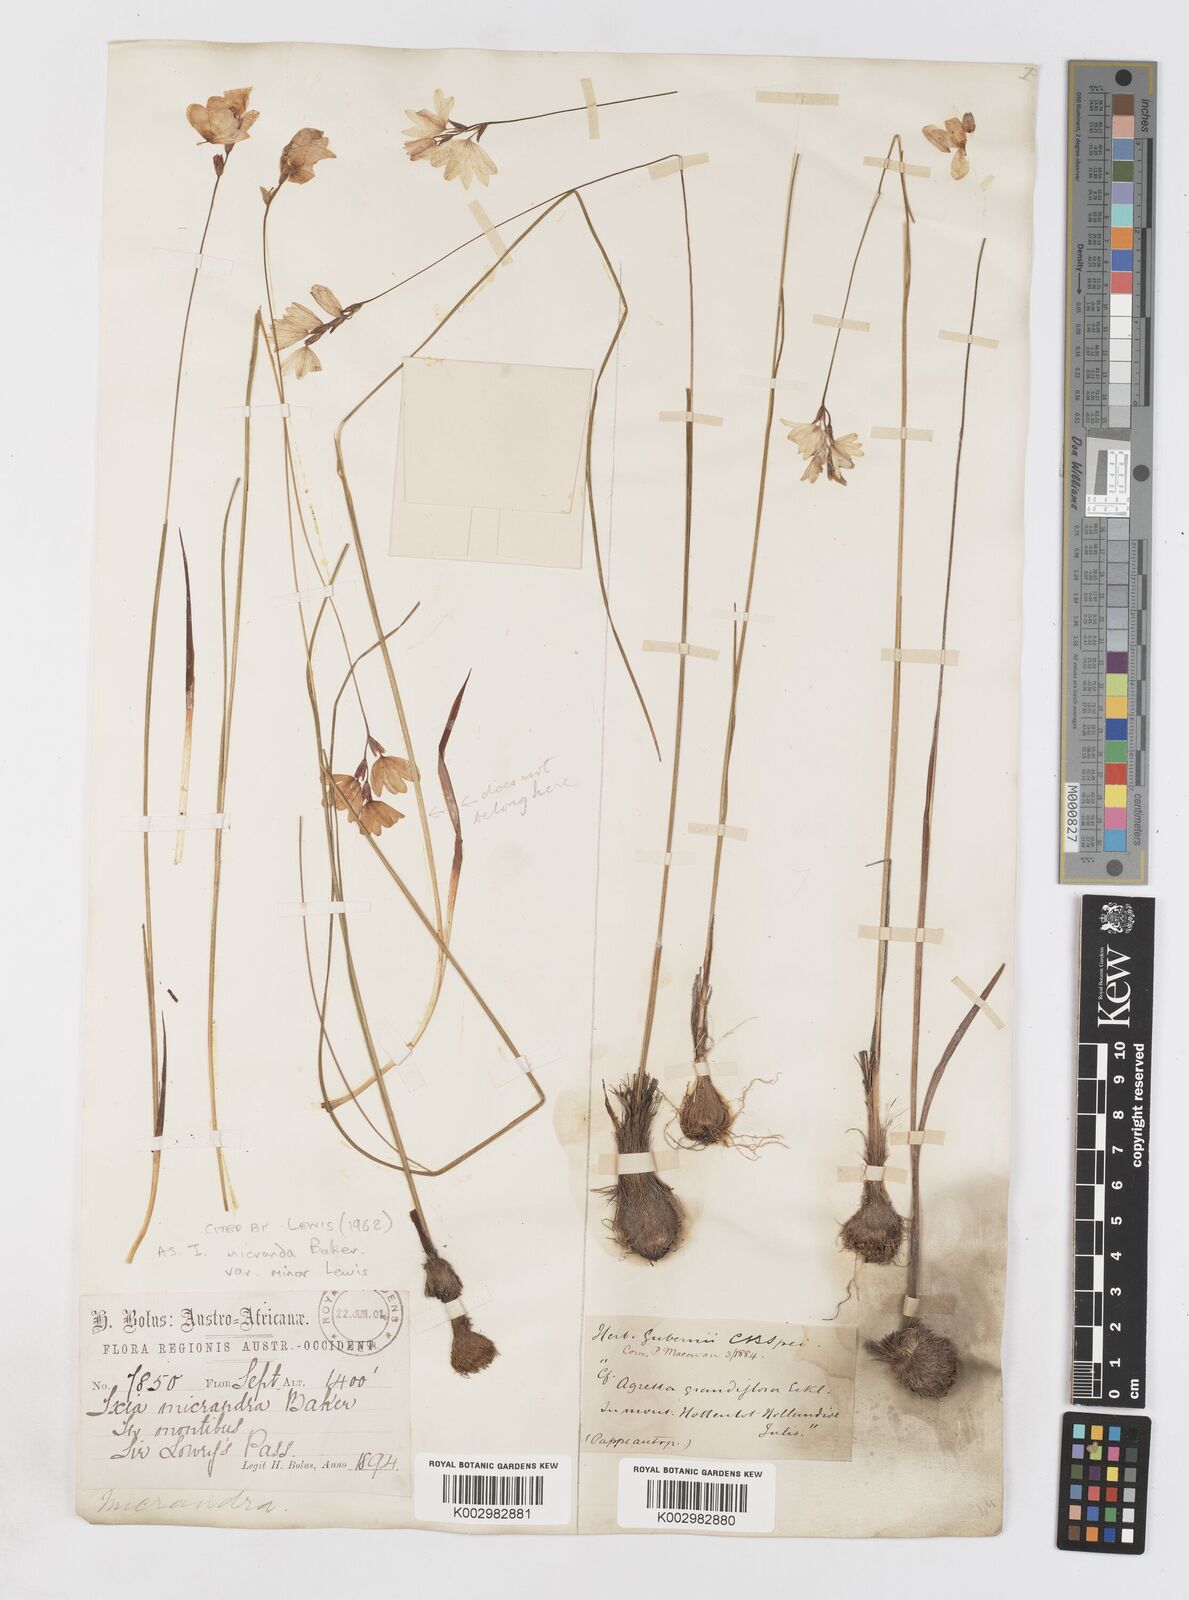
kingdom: Plantae
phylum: Tracheophyta
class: Liliopsida
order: Asparagales
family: Iridaceae
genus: Ixia
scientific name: Ixia minor
